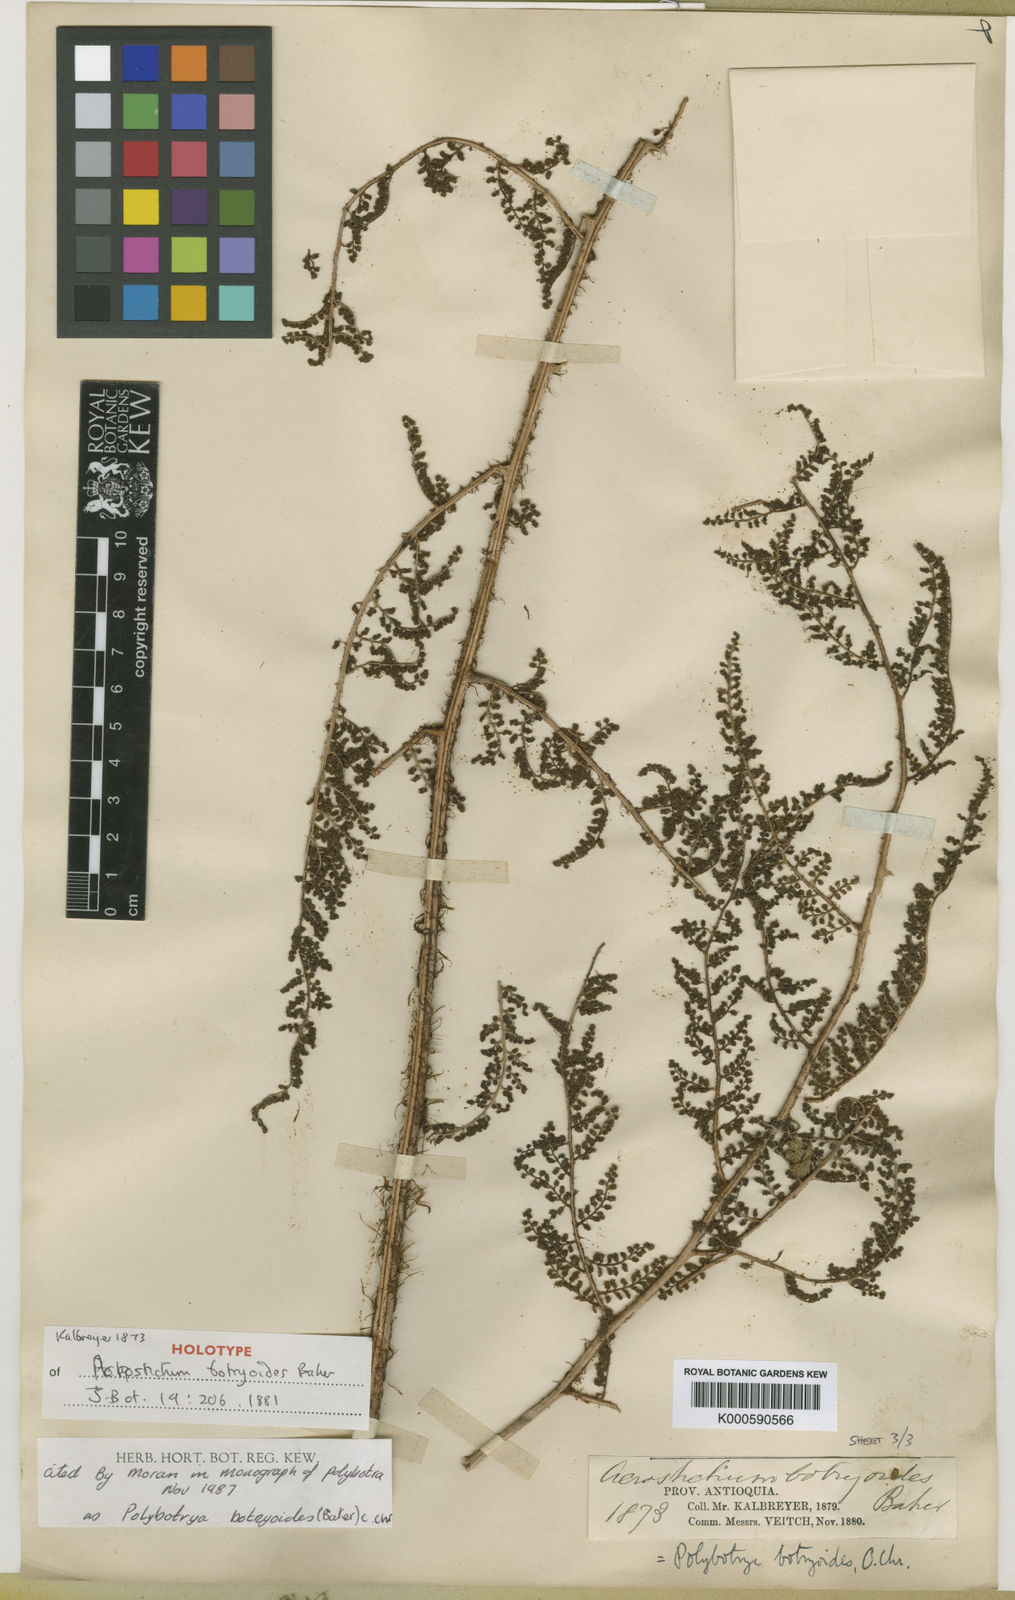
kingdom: Plantae
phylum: Tracheophyta
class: Polypodiopsida
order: Polypodiales
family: Dryopteridaceae
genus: Polybotrya
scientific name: Polybotrya botryoides
